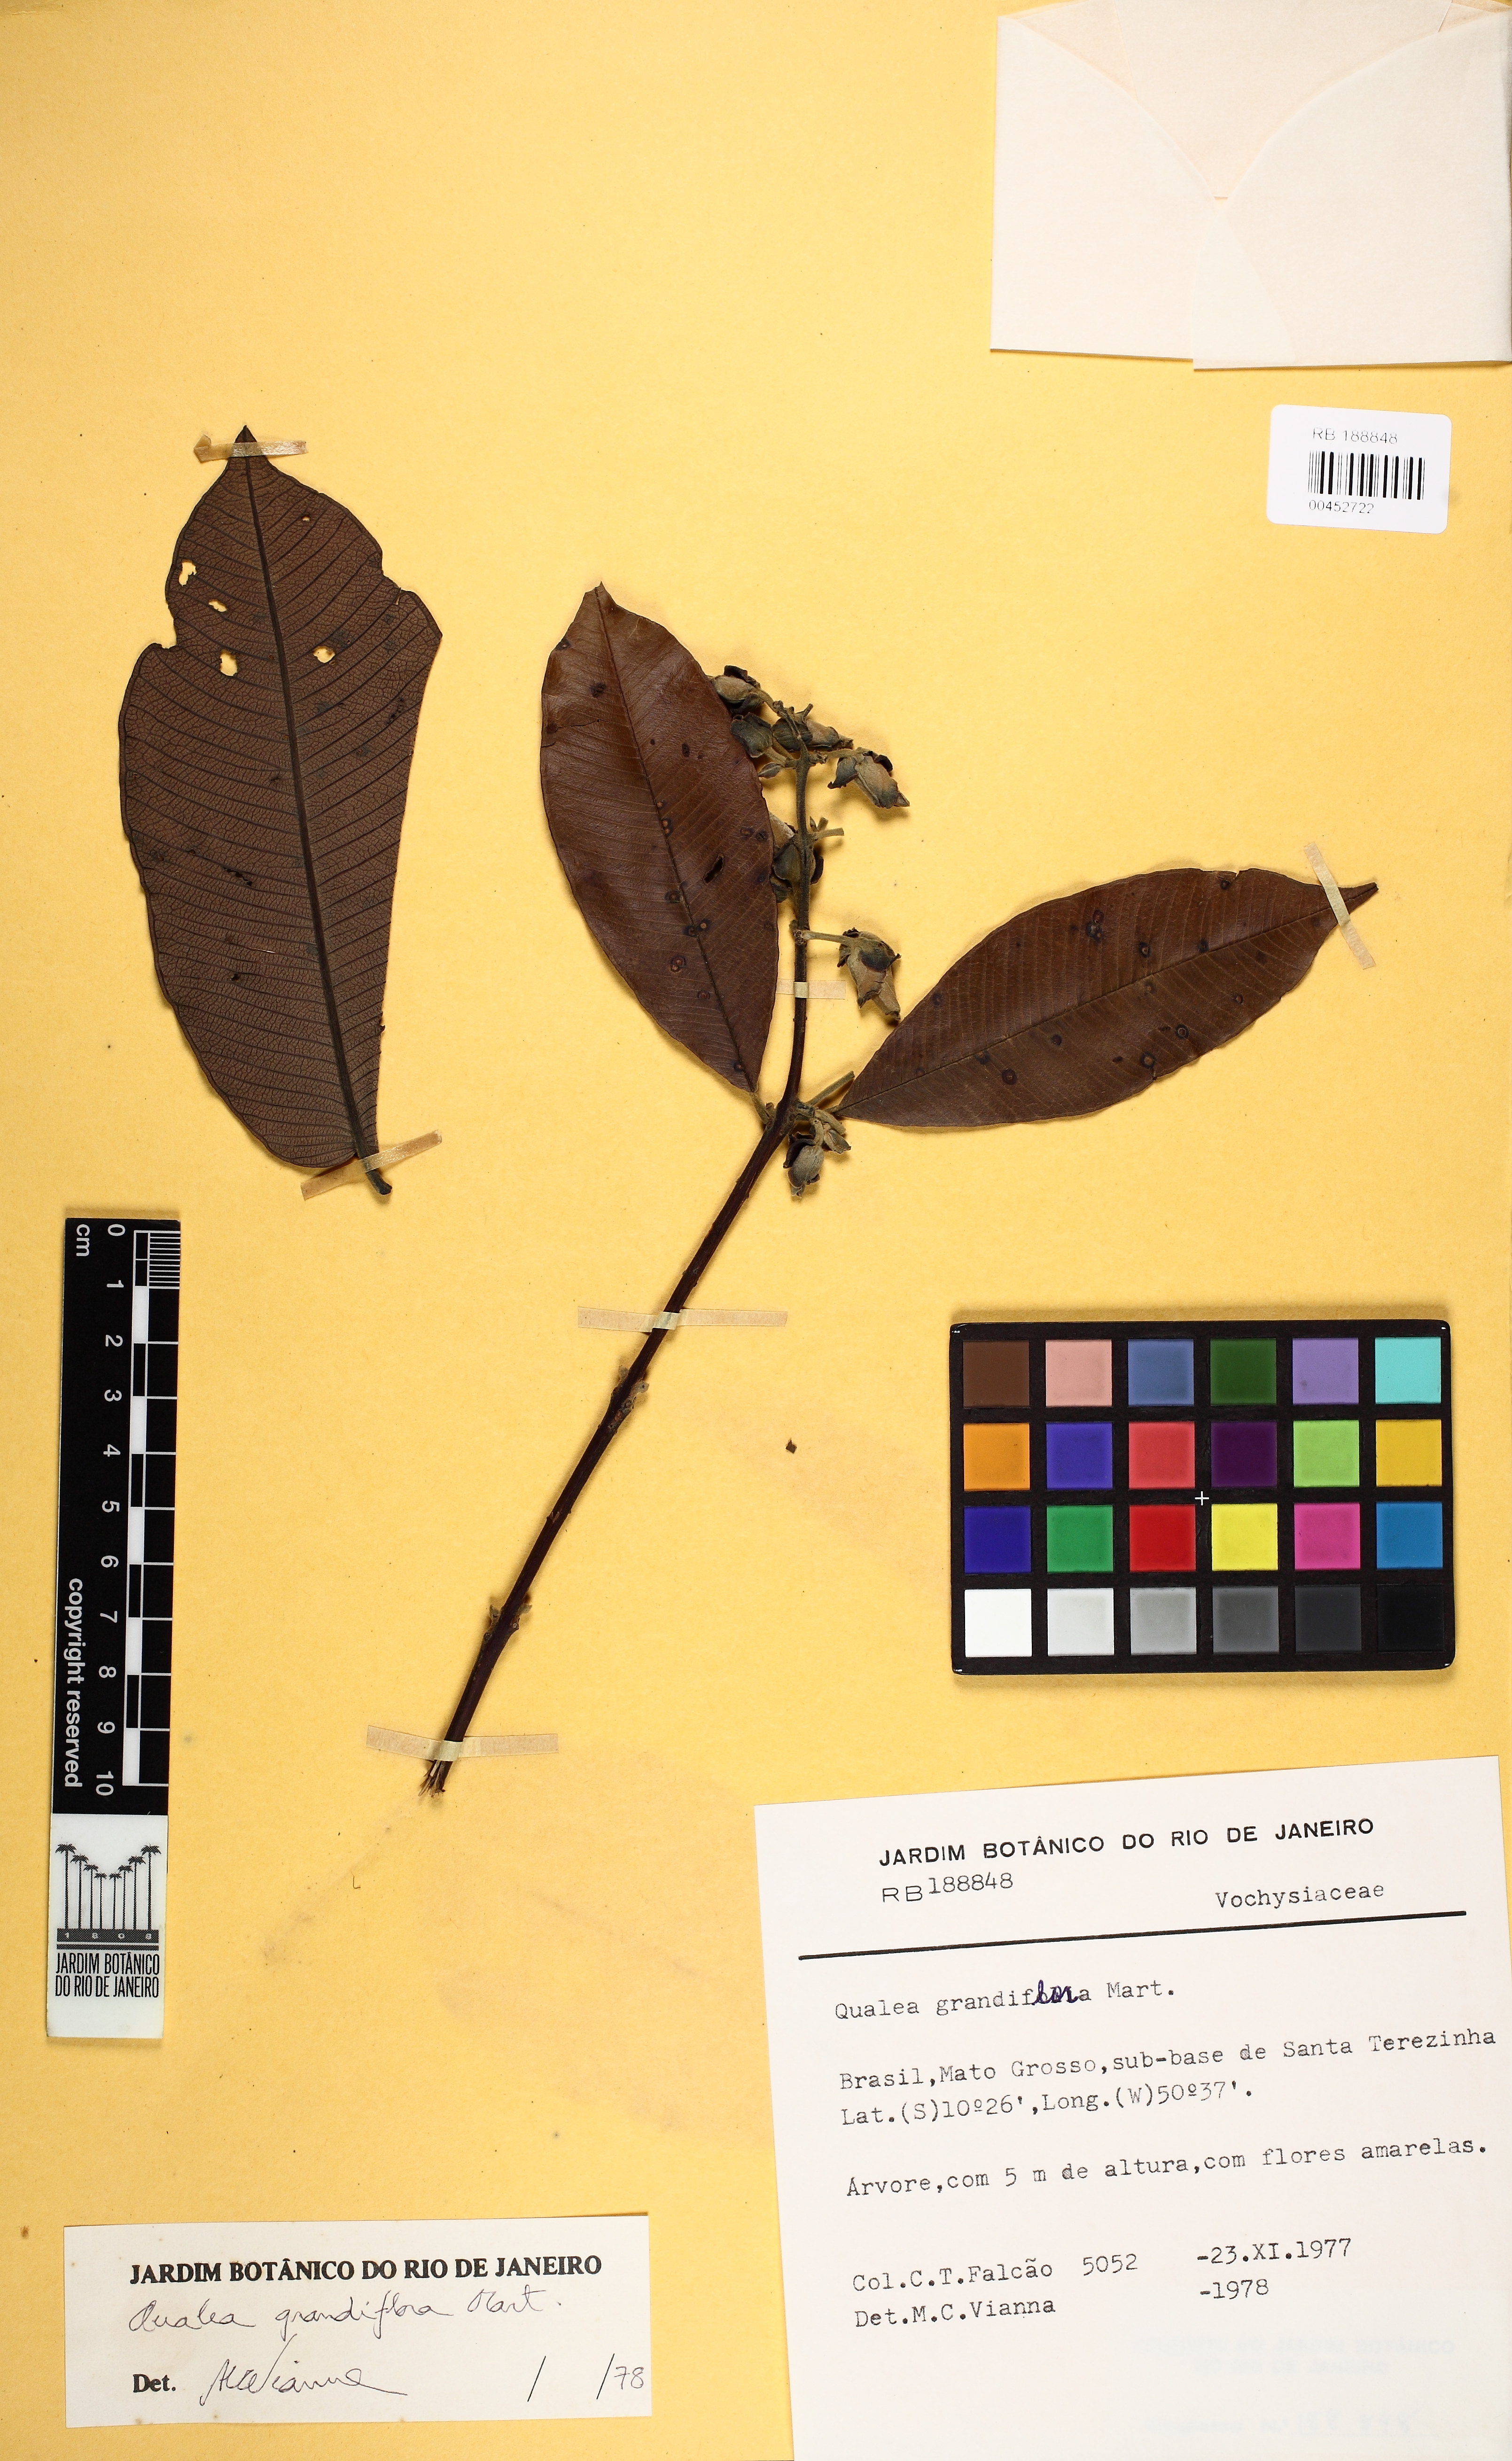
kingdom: Plantae
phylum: Tracheophyta
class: Magnoliopsida
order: Myrtales
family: Vochysiaceae
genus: Qualea
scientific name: Qualea grandiflora
